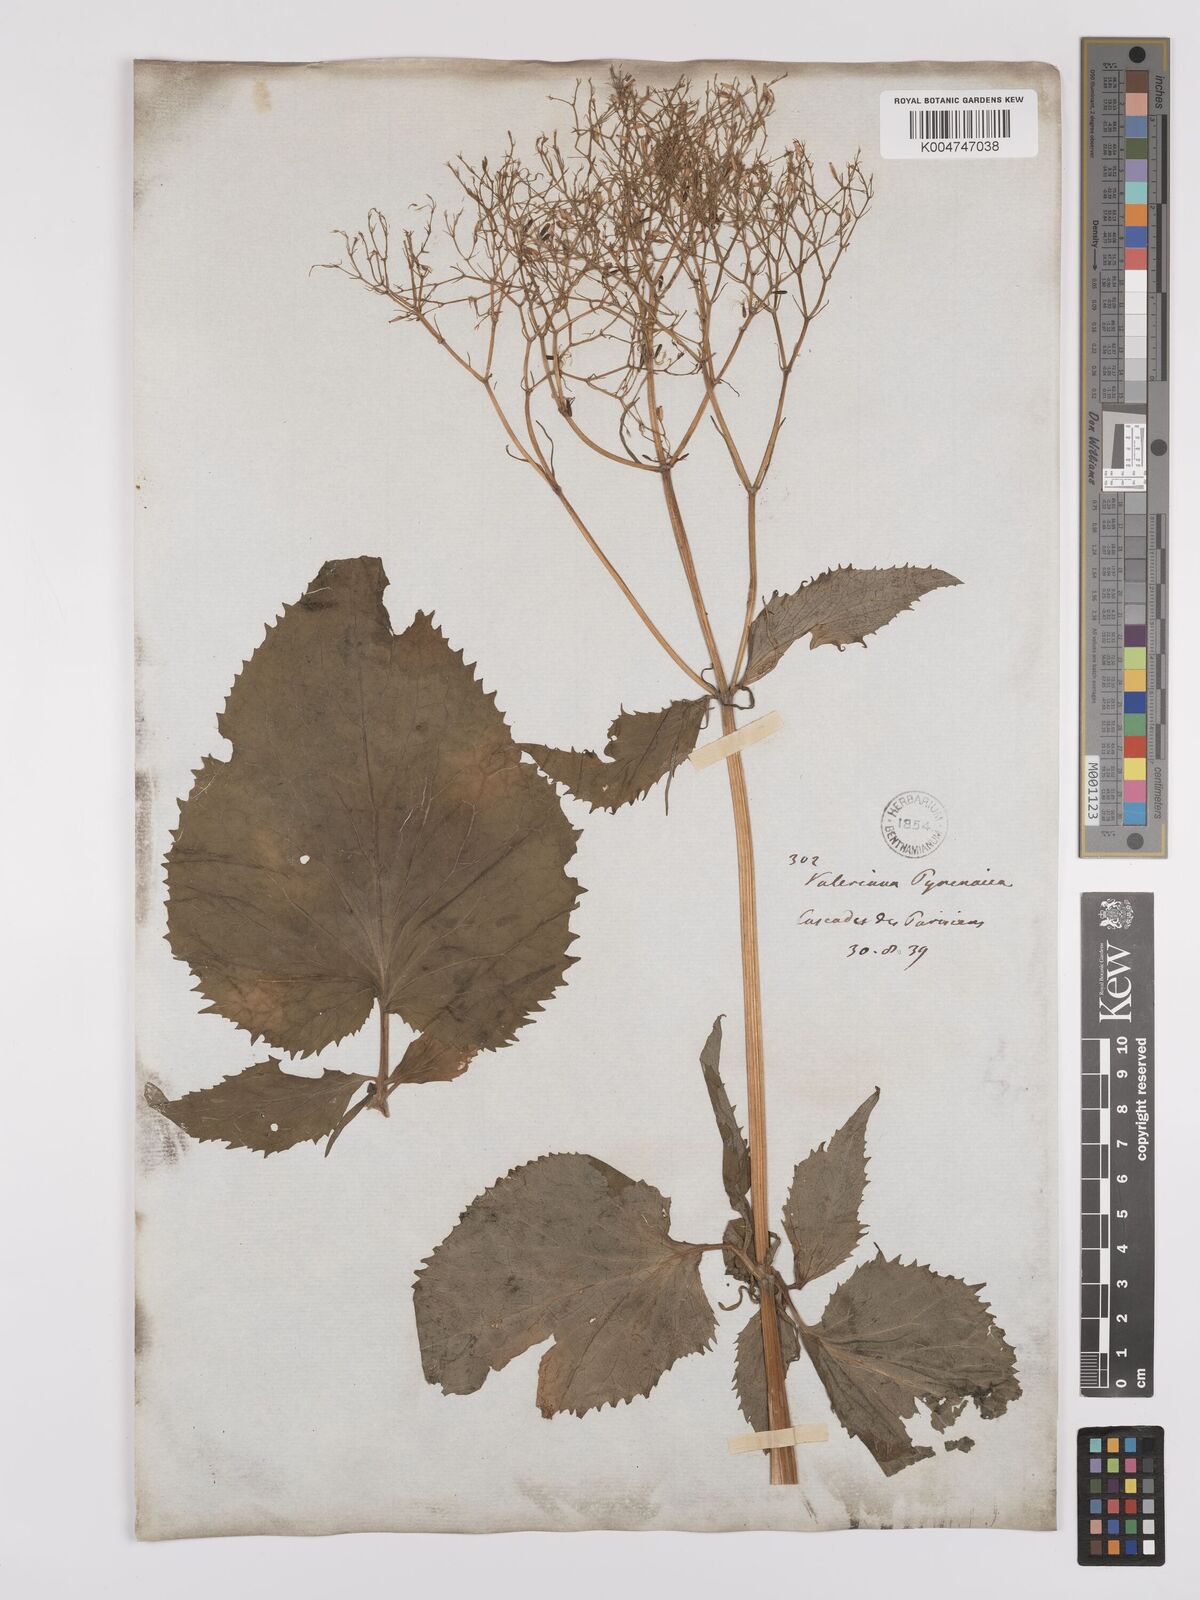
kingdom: Plantae
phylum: Tracheophyta
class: Magnoliopsida
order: Dipsacales
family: Caprifoliaceae
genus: Valeriana
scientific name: Valeriana pyrenaica
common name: Pyrenean valerian
